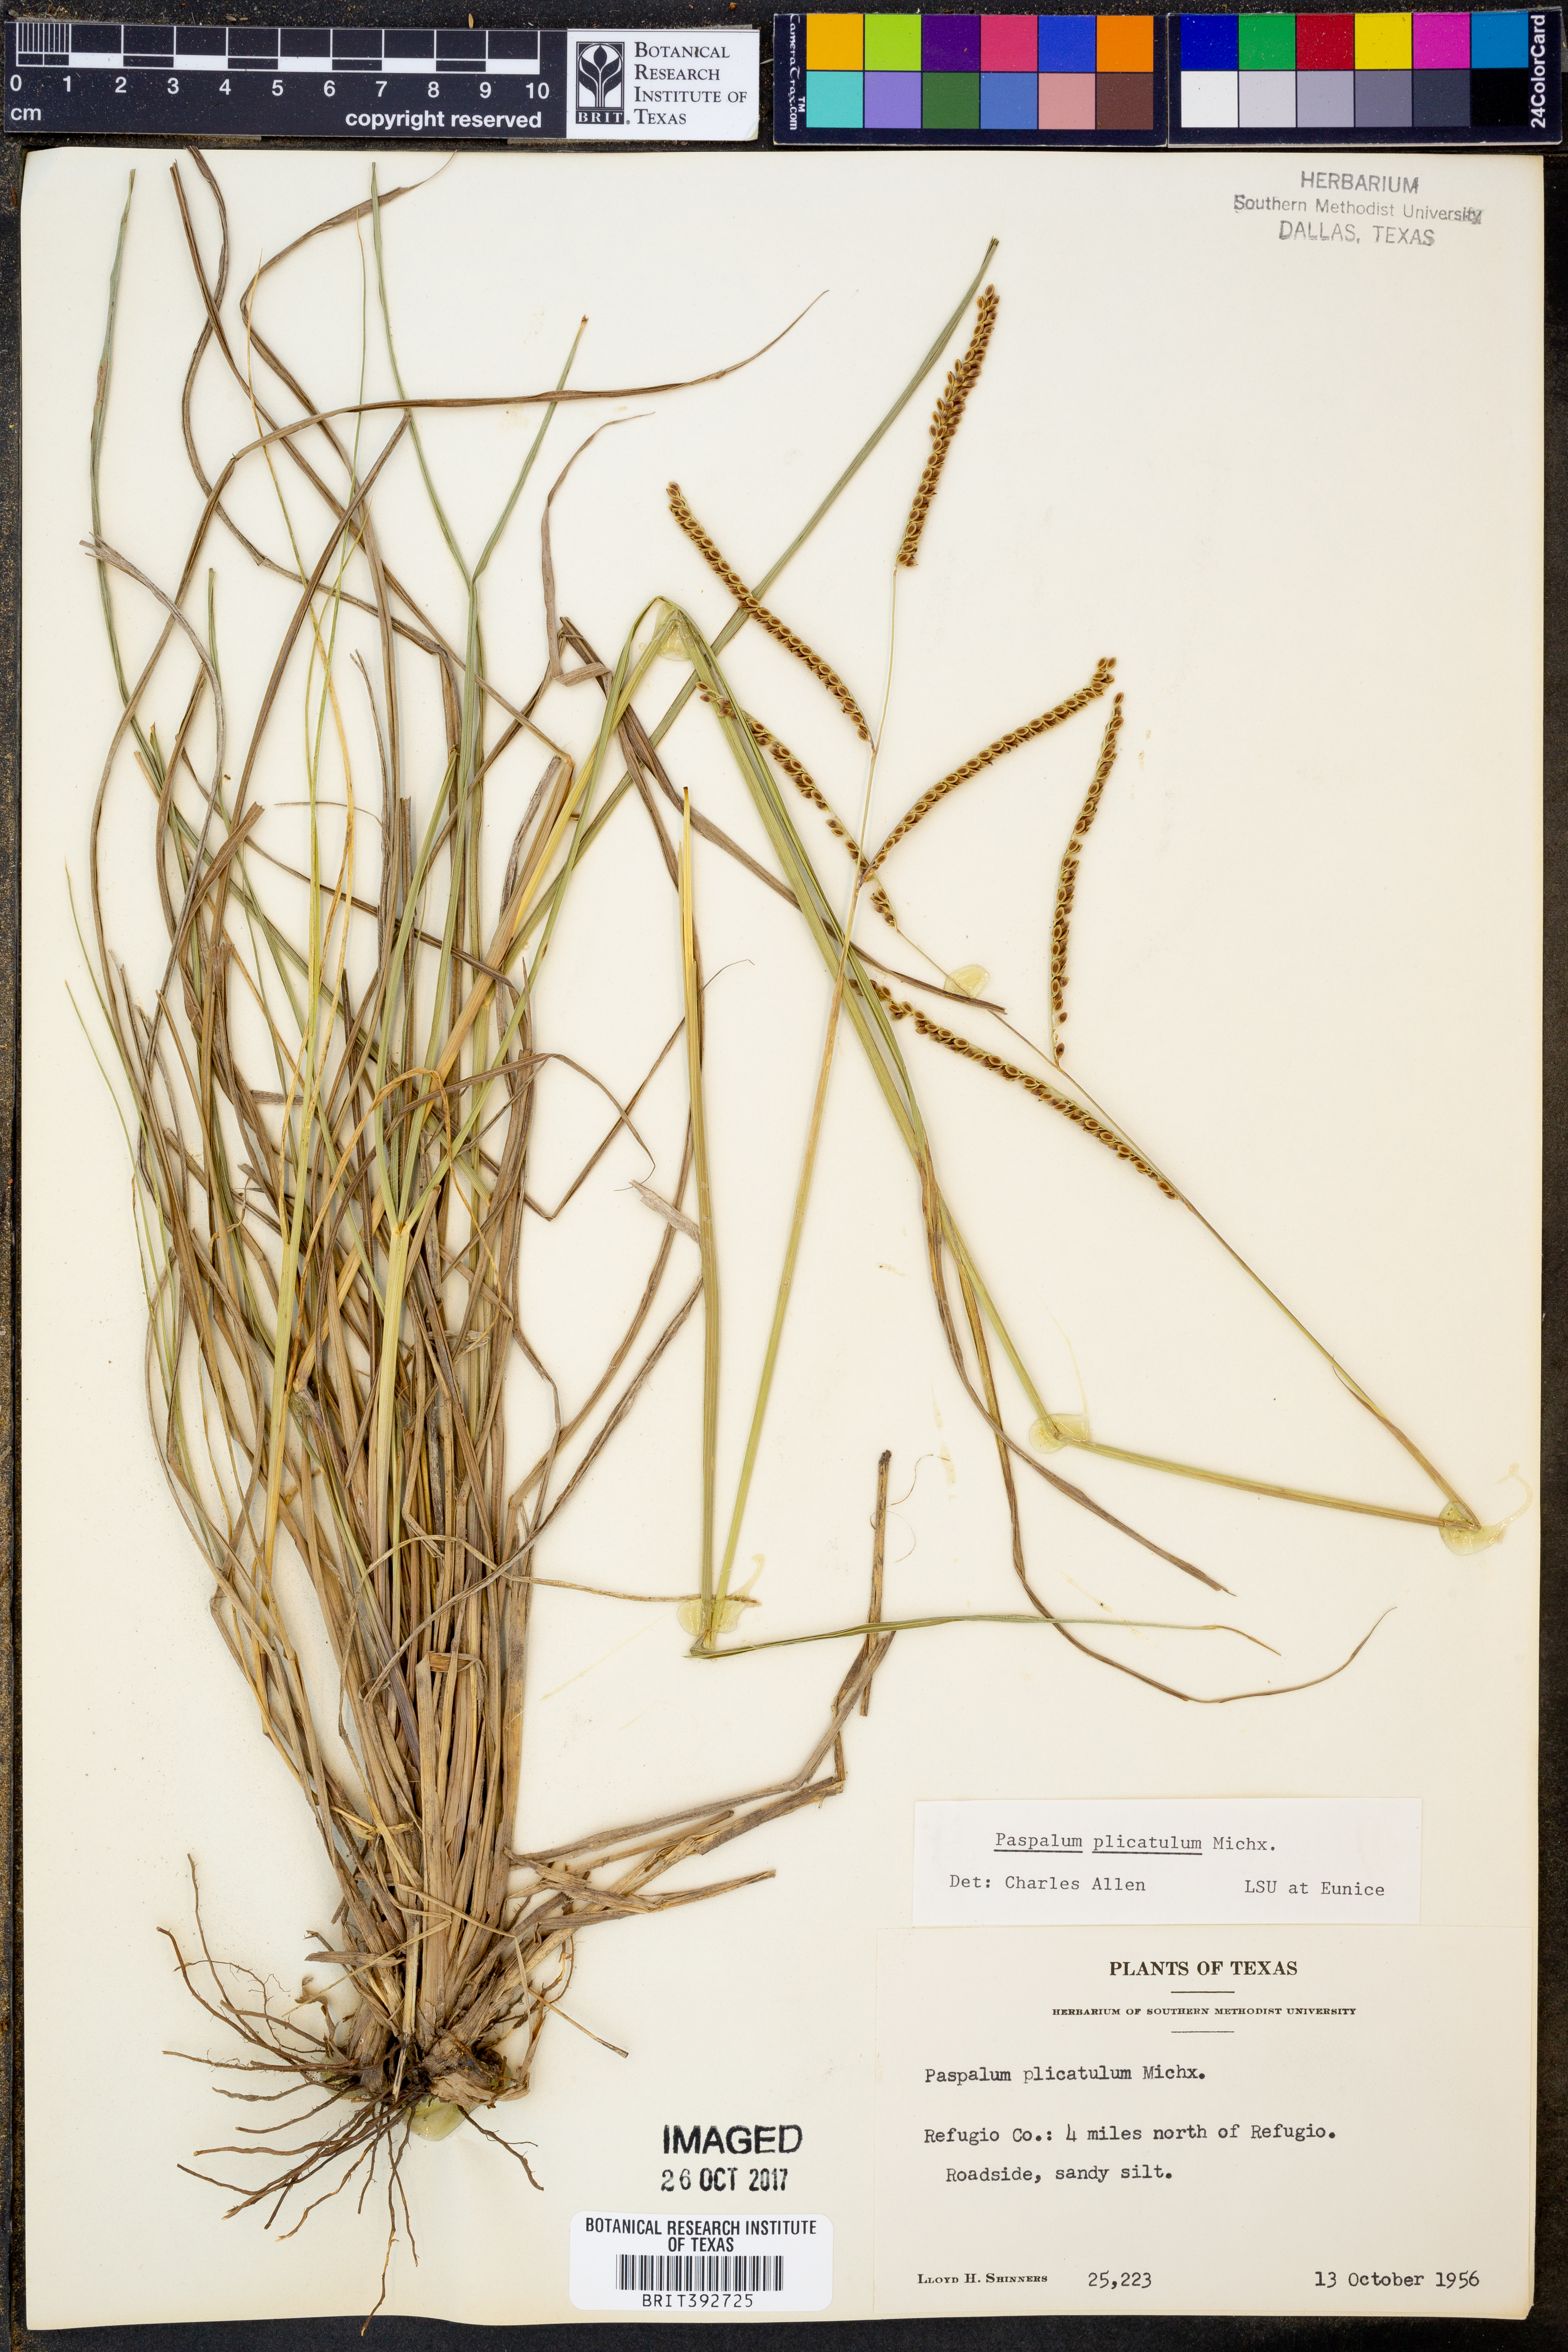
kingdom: Plantae
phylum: Tracheophyta
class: Liliopsida
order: Poales
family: Poaceae
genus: Paspalum
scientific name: Paspalum plicatulum
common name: Top paspalum
